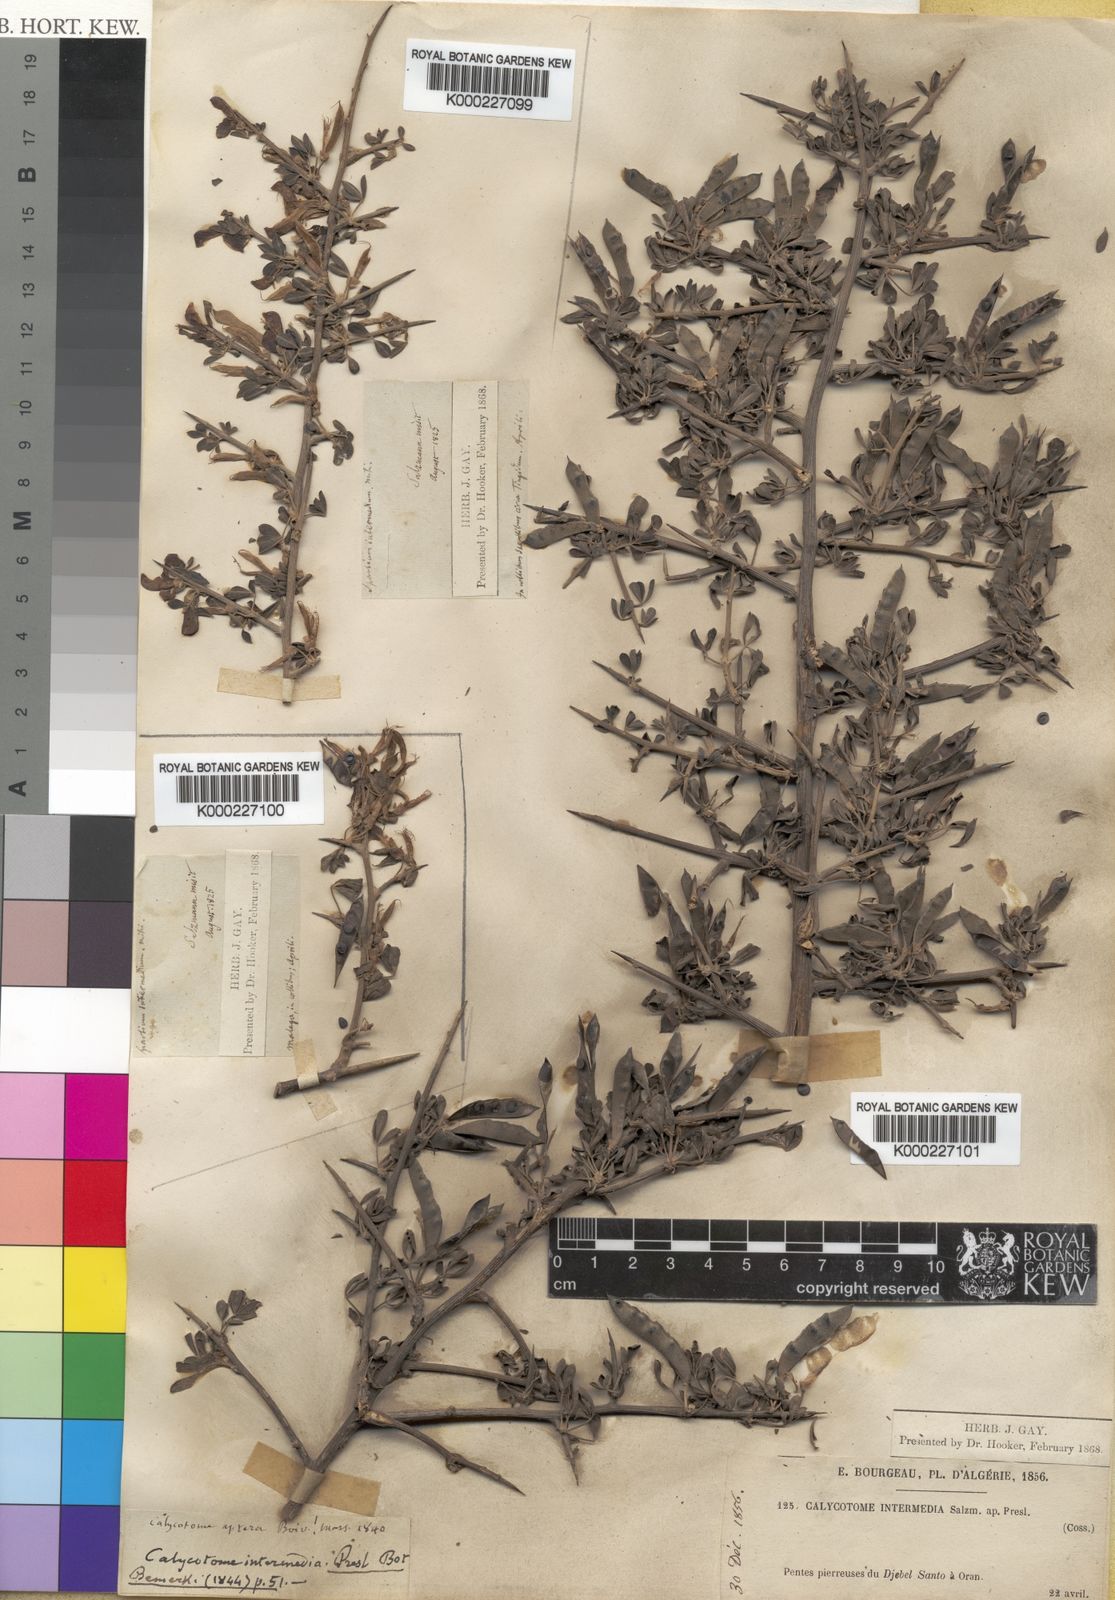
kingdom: Plantae
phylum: Tracheophyta
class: Magnoliopsida
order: Fabales
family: Fabaceae
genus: Calicotome
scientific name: Calicotome villosa
